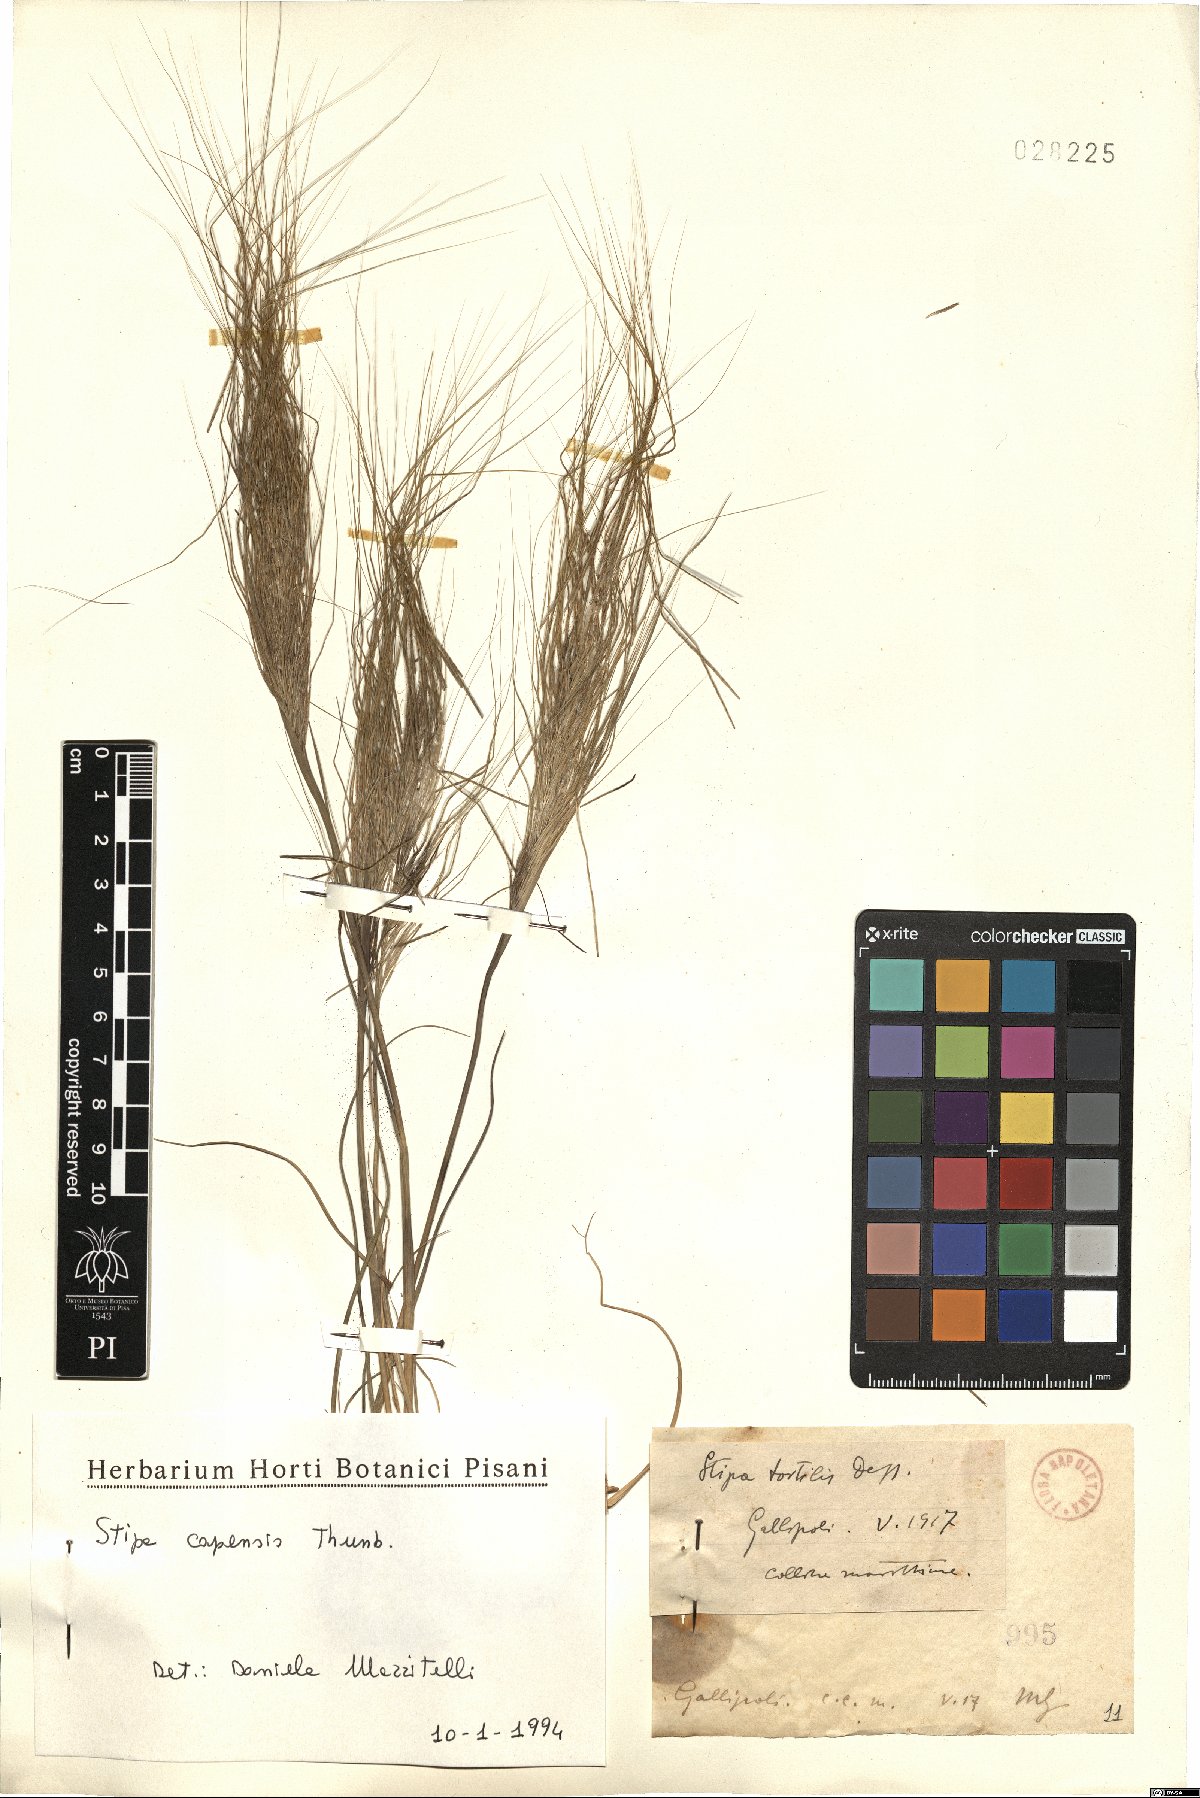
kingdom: Plantae
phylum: Tracheophyta
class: Liliopsida
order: Poales
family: Poaceae
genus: Stipellula
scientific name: Stipellula capensis
